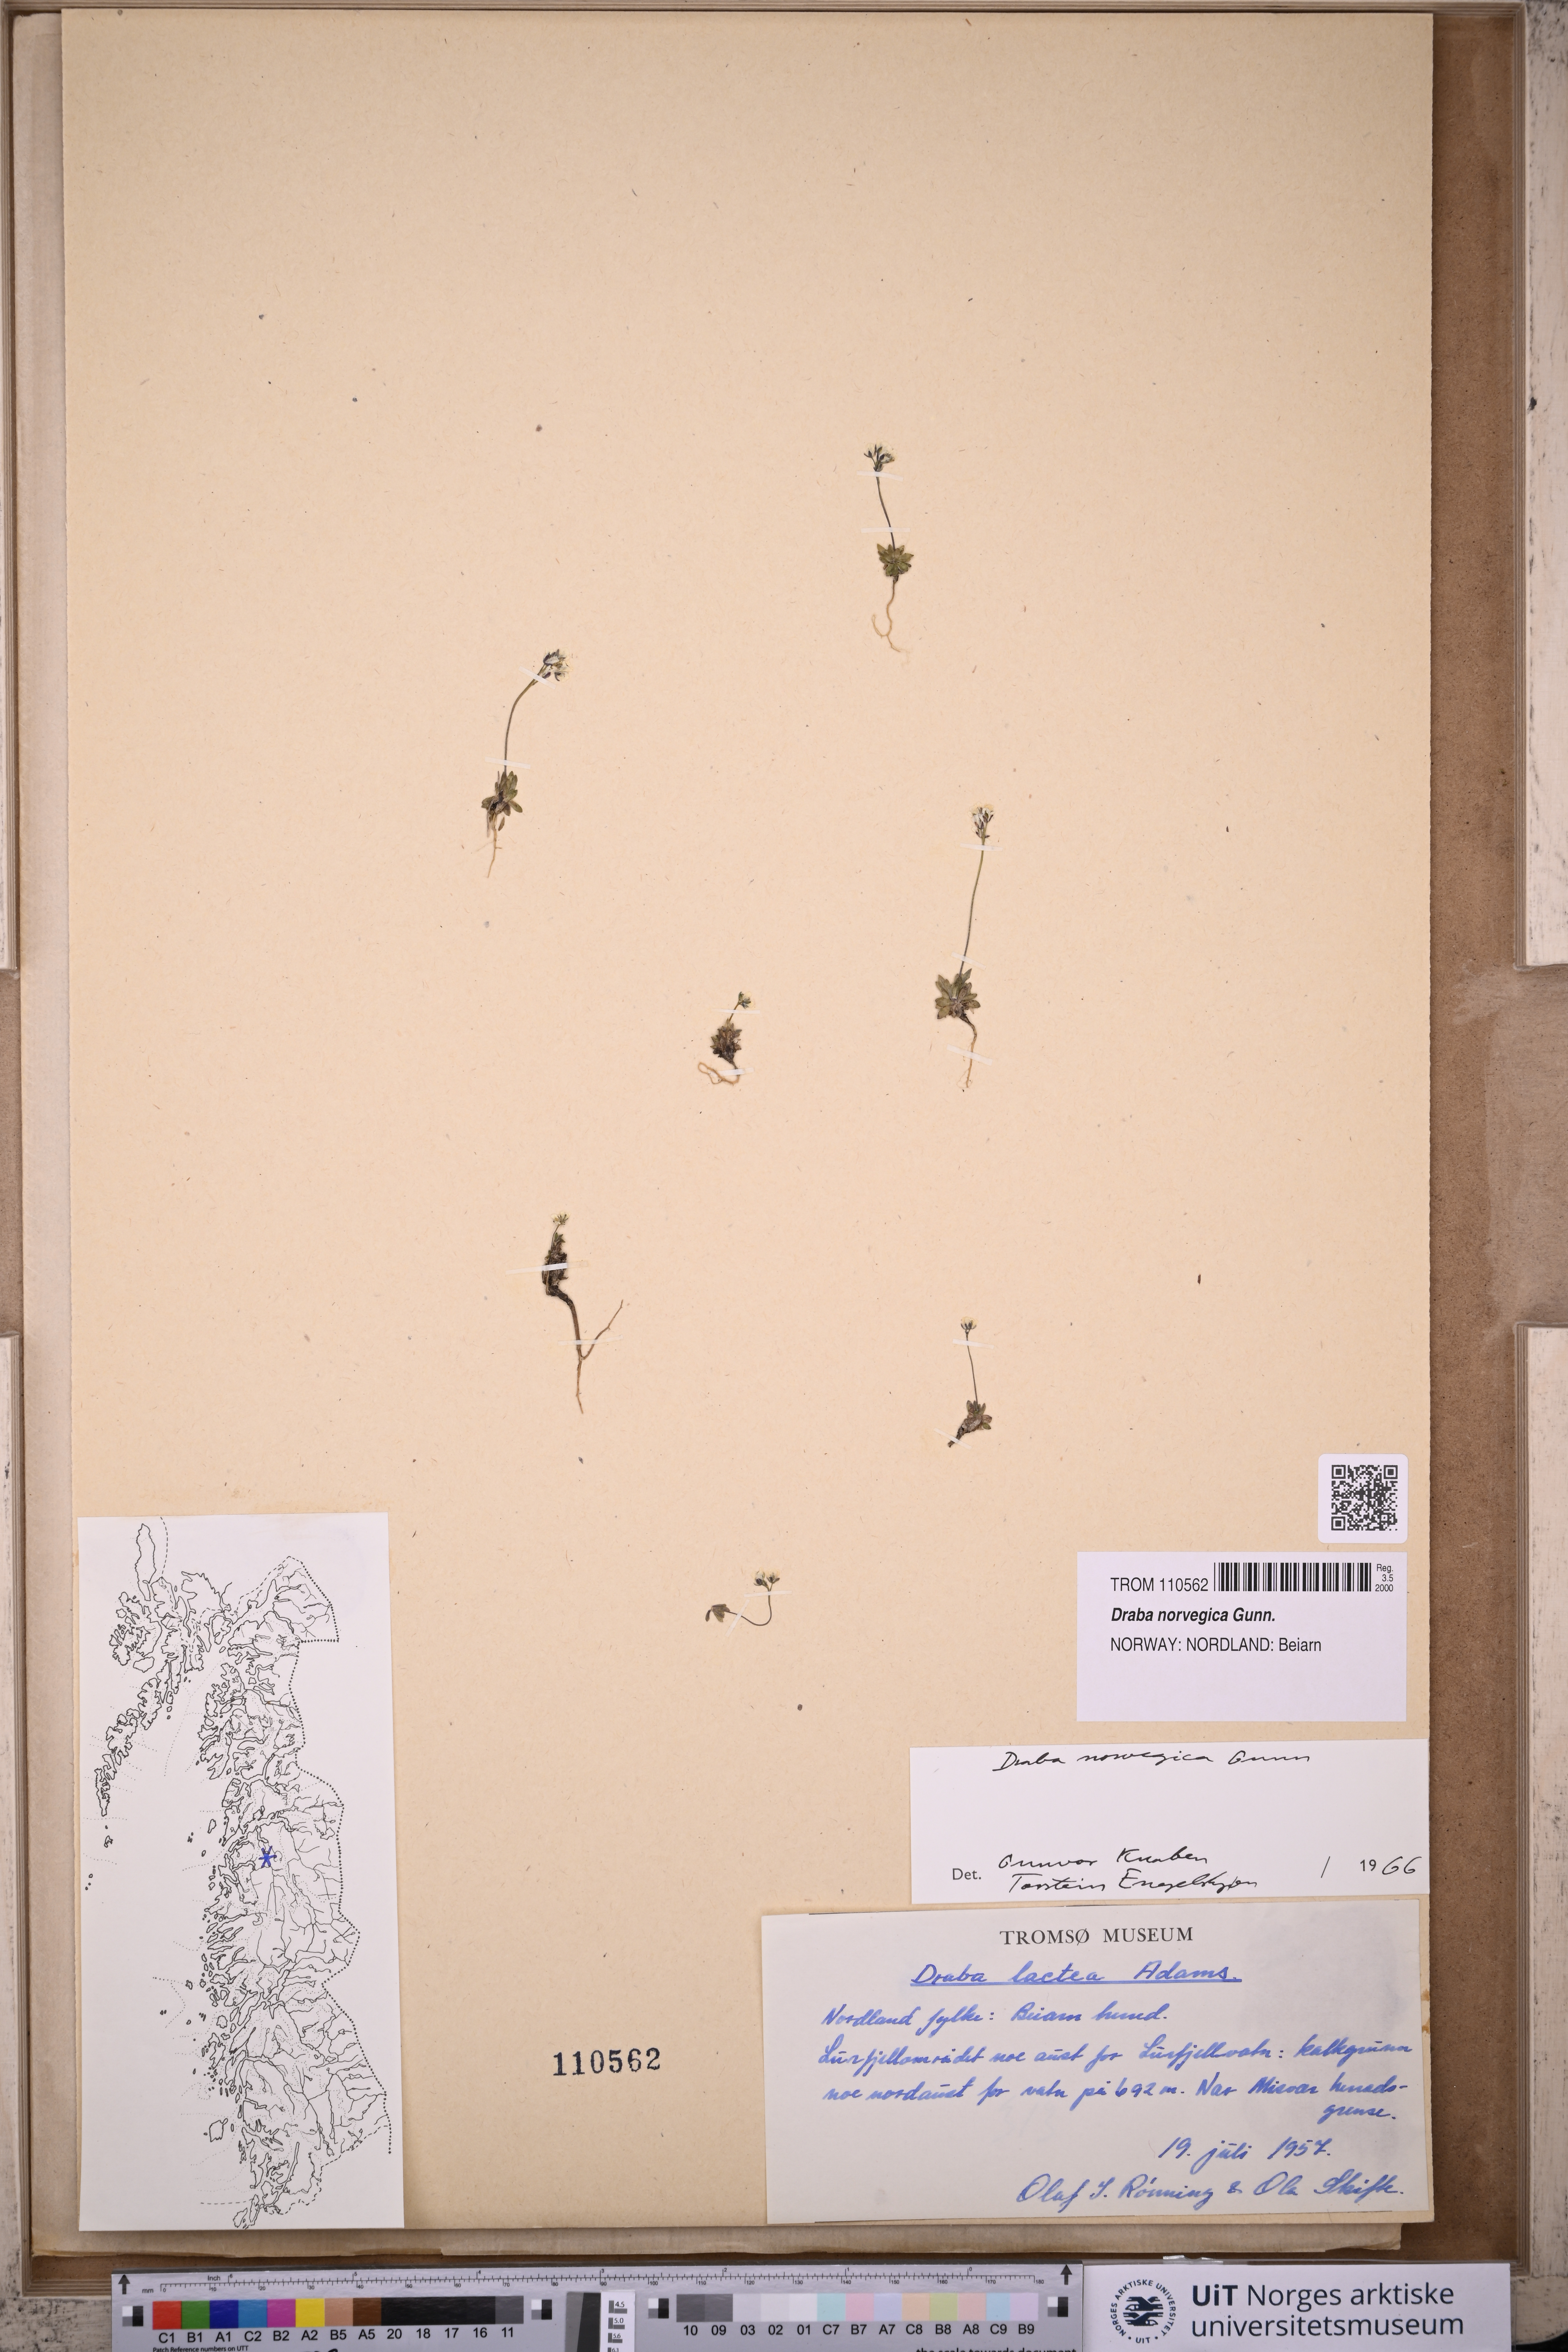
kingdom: Plantae
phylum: Tracheophyta
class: Magnoliopsida
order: Brassicales
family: Brassicaceae
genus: Draba
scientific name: Draba norvegica
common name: Rock whitlowgrass
